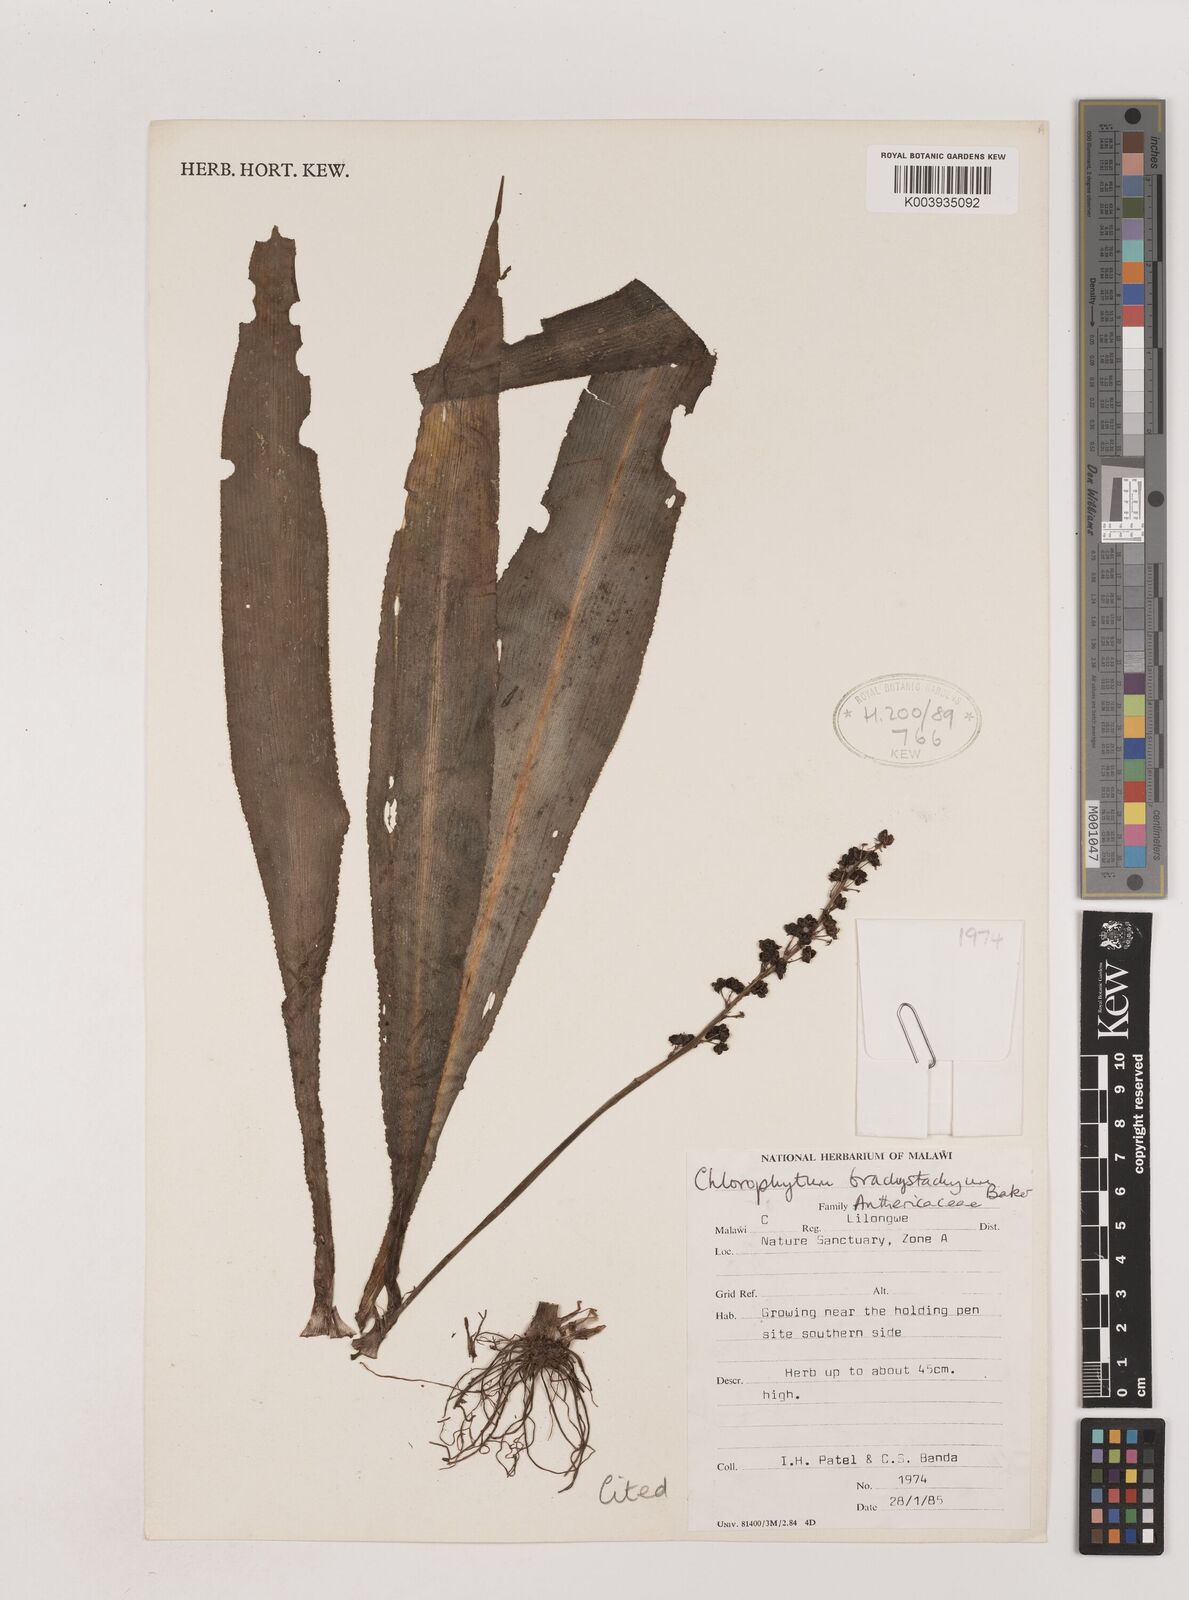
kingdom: Plantae
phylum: Tracheophyta
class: Liliopsida
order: Asparagales
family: Asparagaceae
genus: Chlorophytum
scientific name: Chlorophytum brachystachyum
